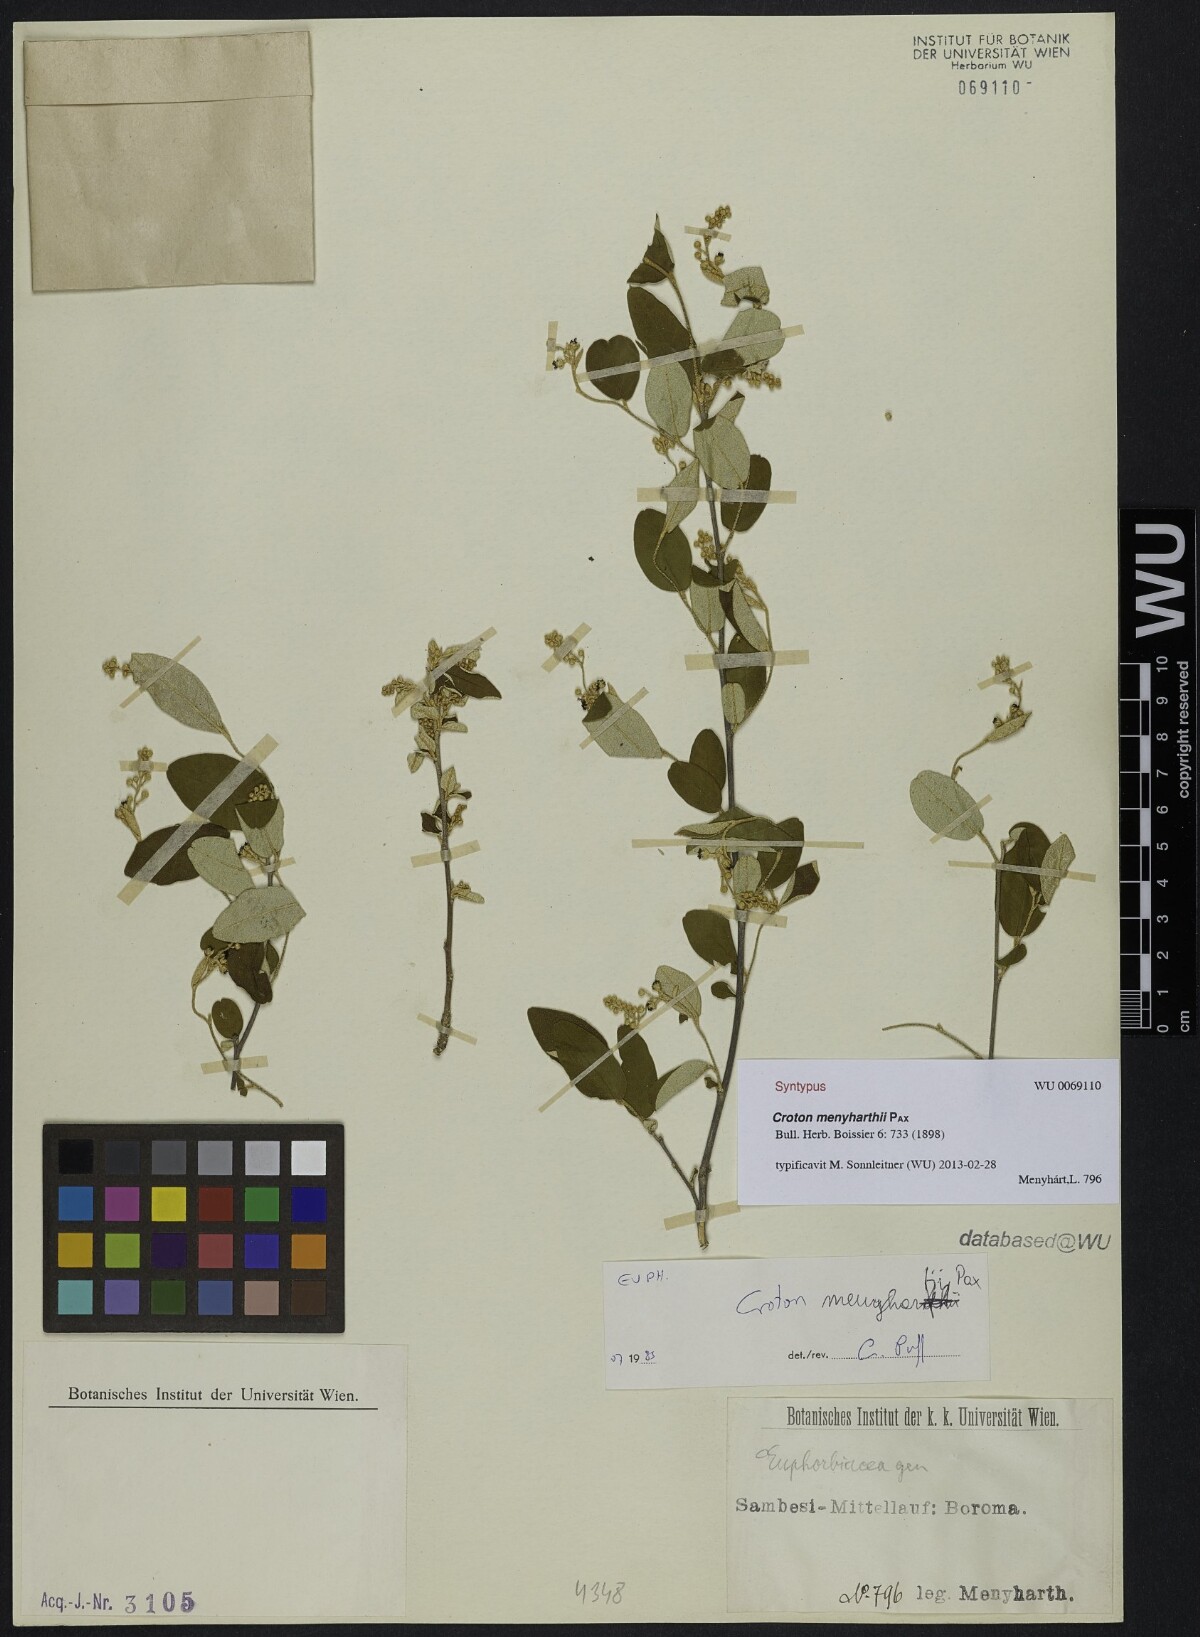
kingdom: Plantae
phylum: Tracheophyta
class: Magnoliopsida
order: Malpighiales
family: Euphorbiaceae
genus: Croton
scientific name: Croton menyharthii
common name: Rough-leaved croton
